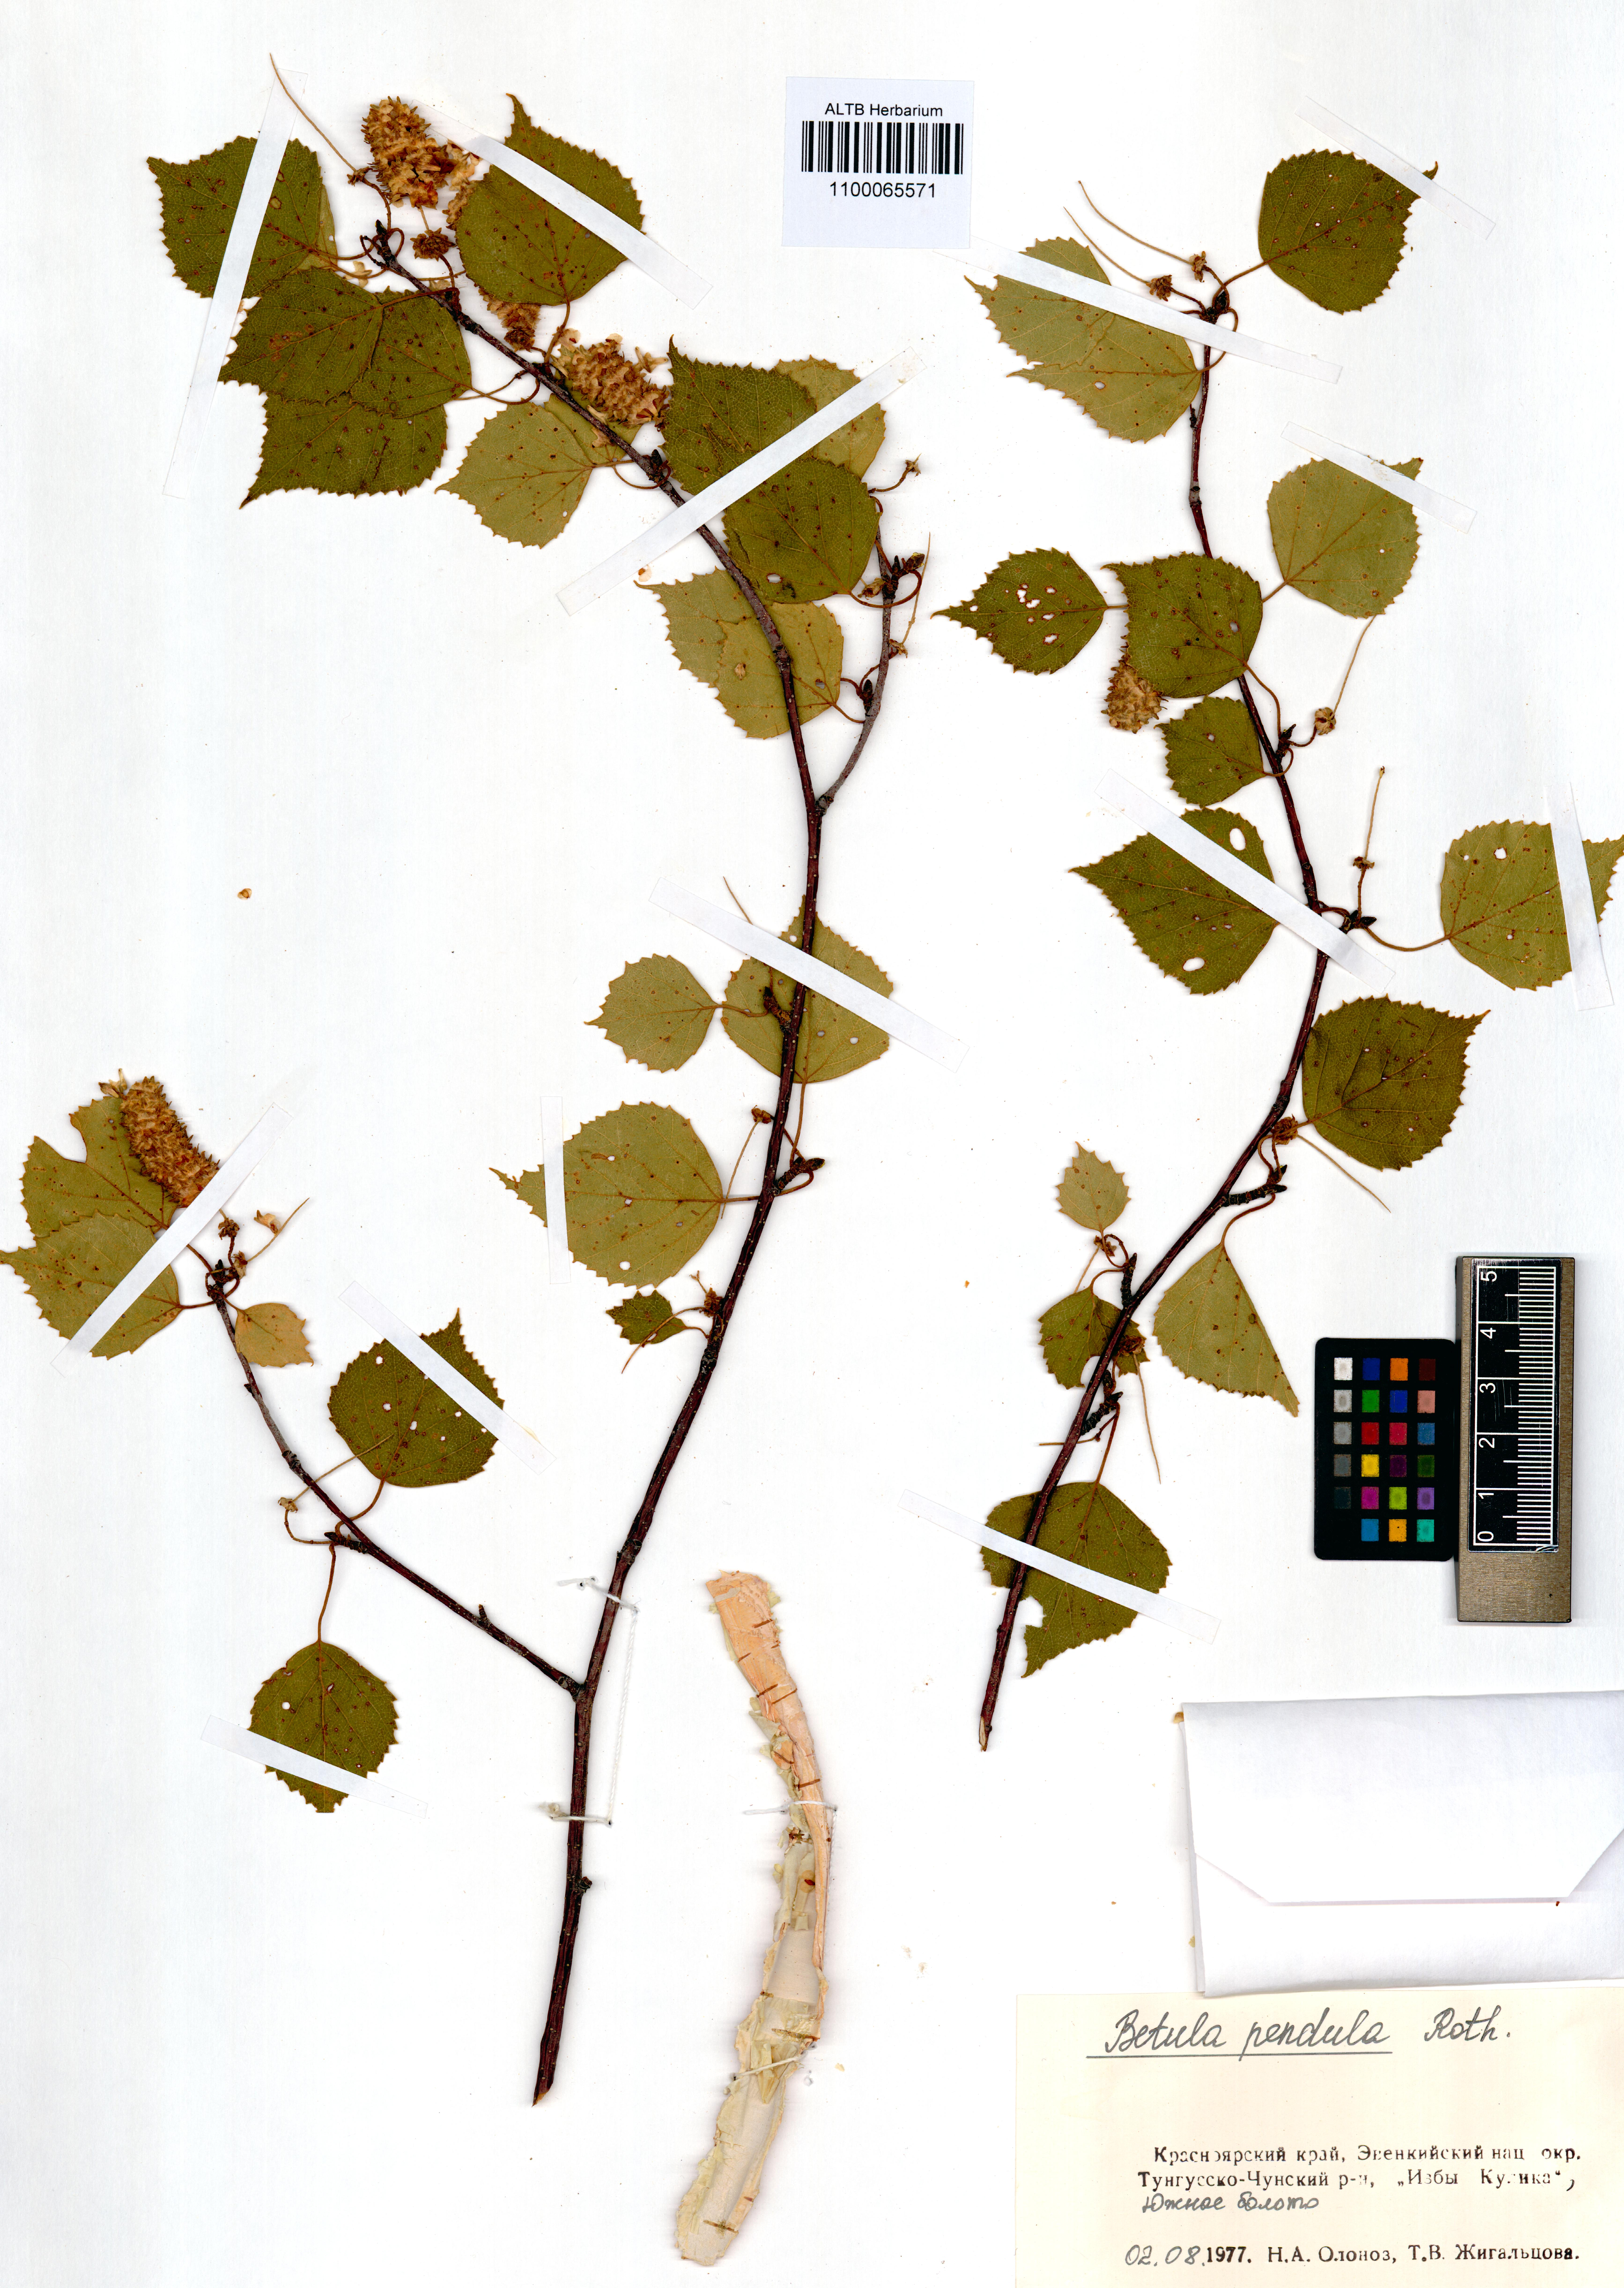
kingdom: Plantae
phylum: Tracheophyta
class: Magnoliopsida
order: Fagales
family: Betulaceae
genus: Betula
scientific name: Betula pendula
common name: Silver birch
